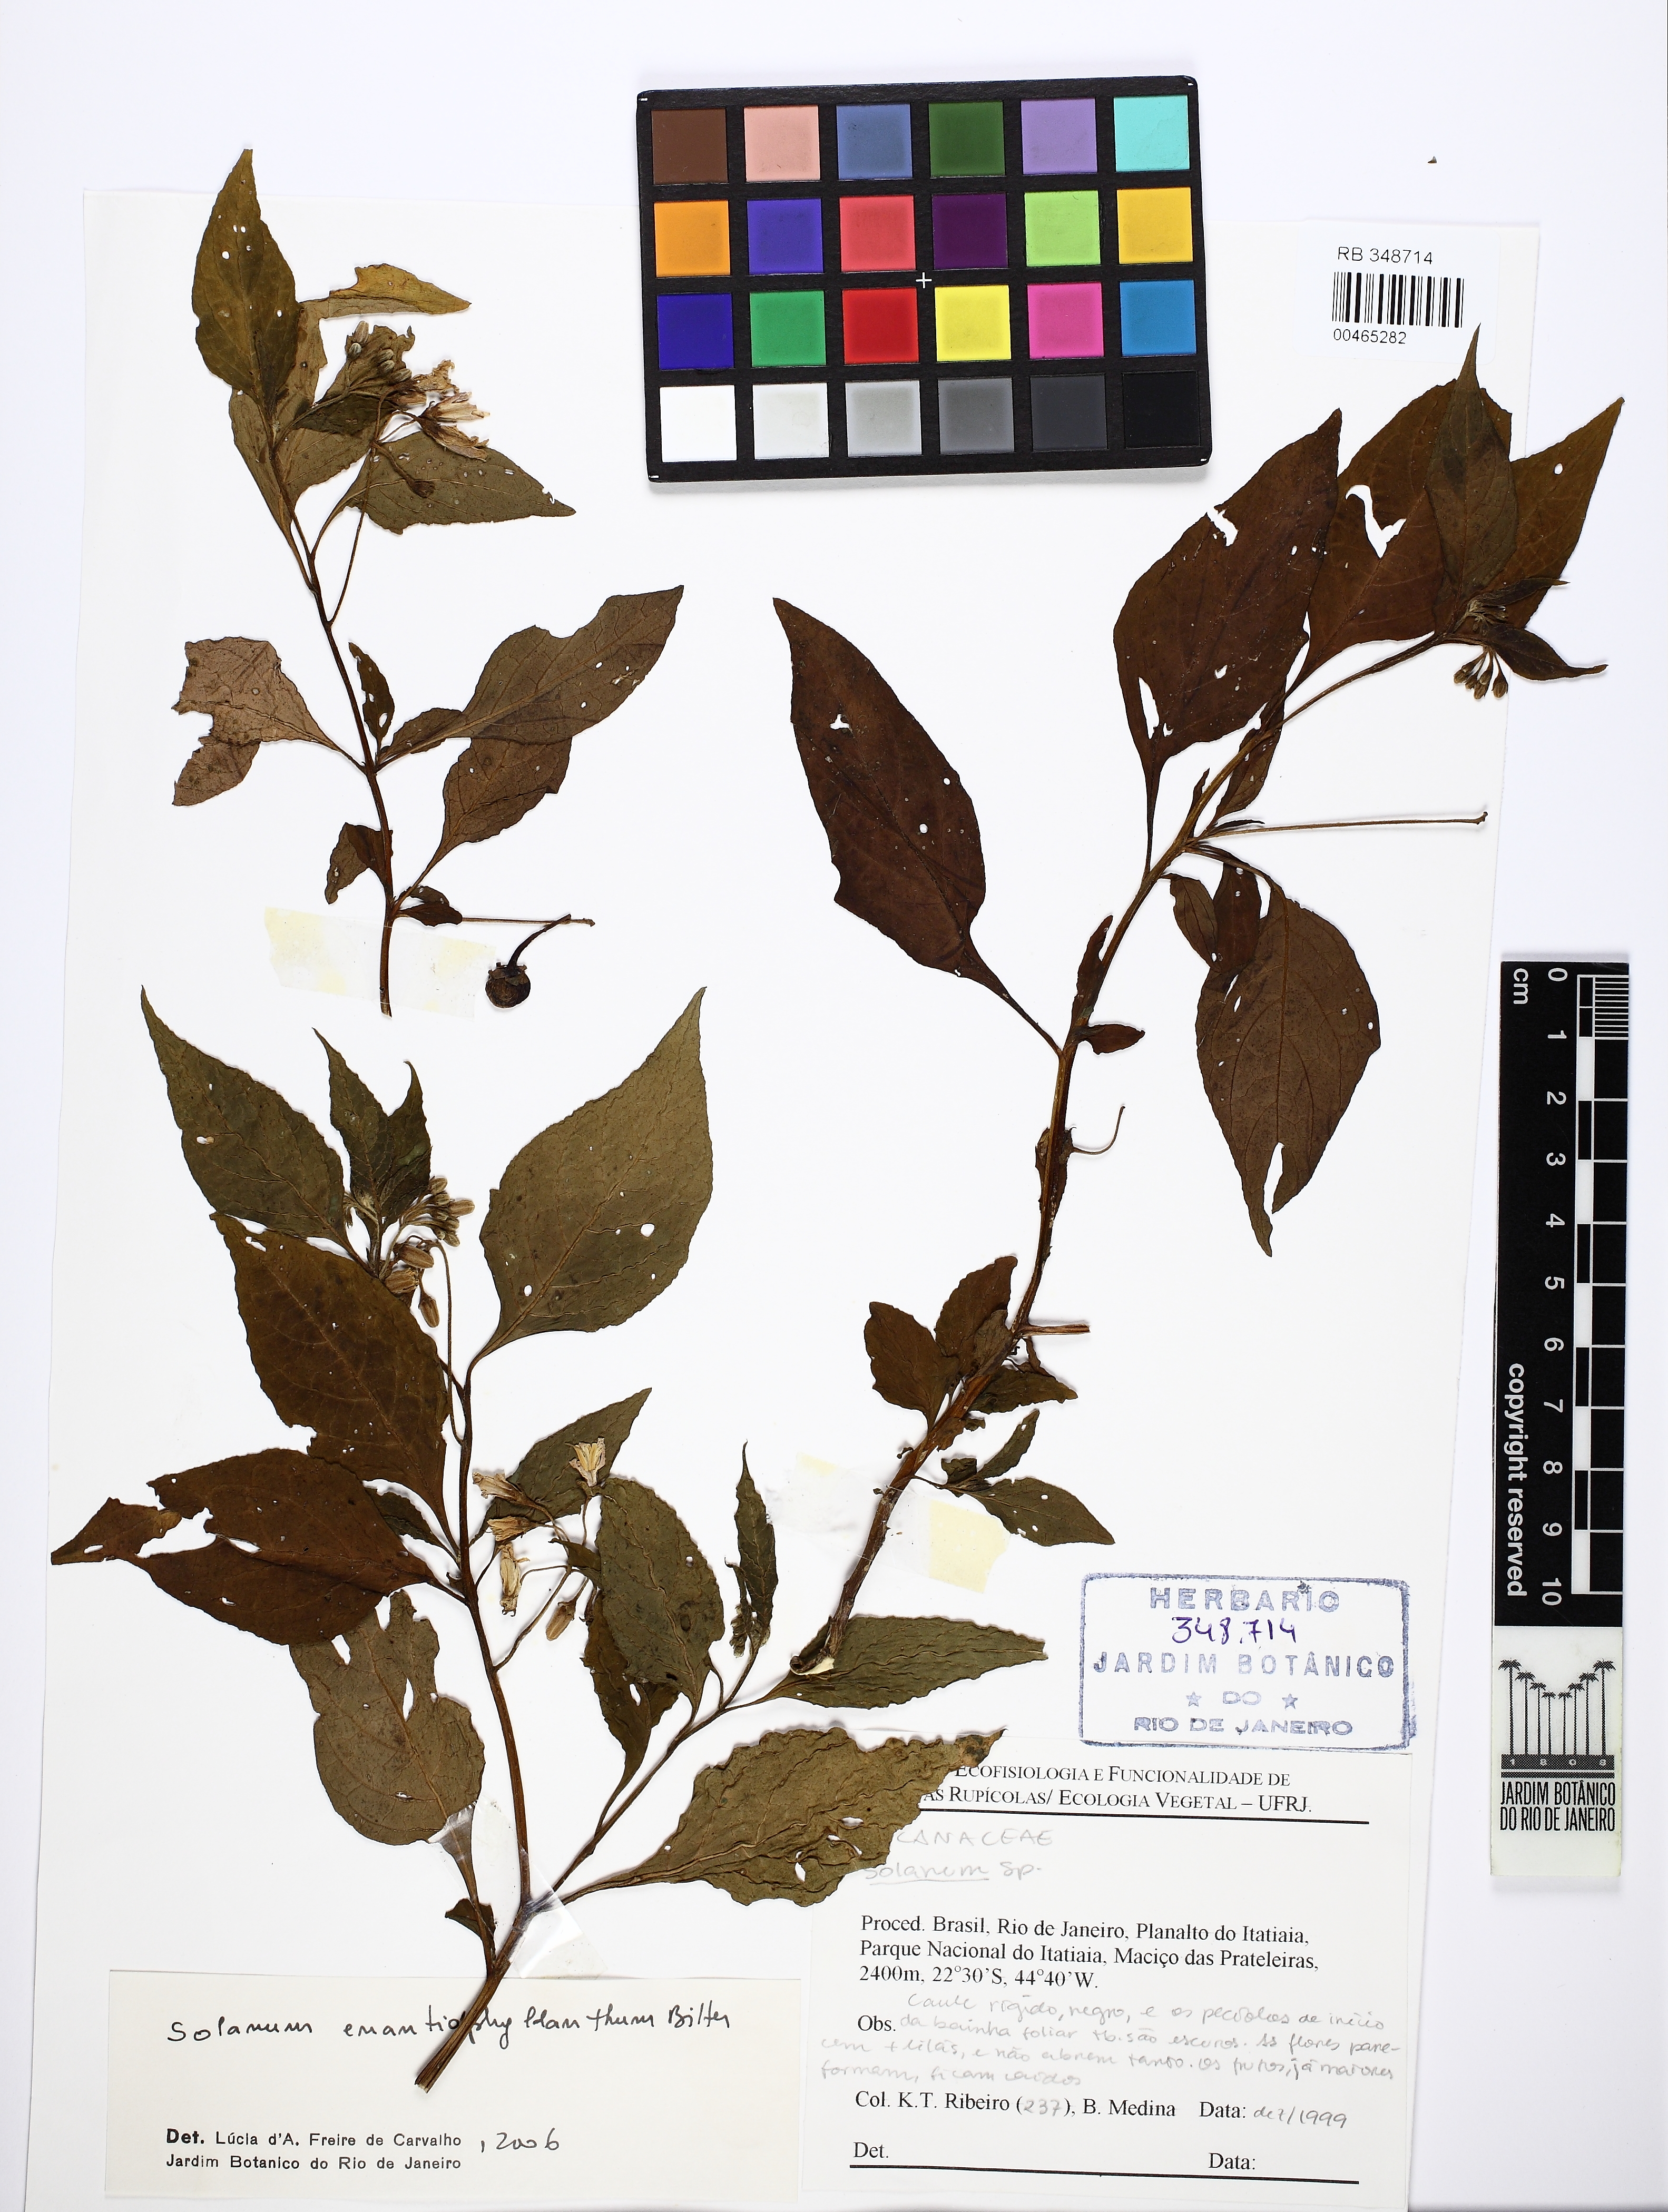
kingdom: Plantae
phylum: Tracheophyta
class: Magnoliopsida
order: Solanales
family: Solanaceae
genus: Solanum
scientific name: Solanum enantiophyllanthum
